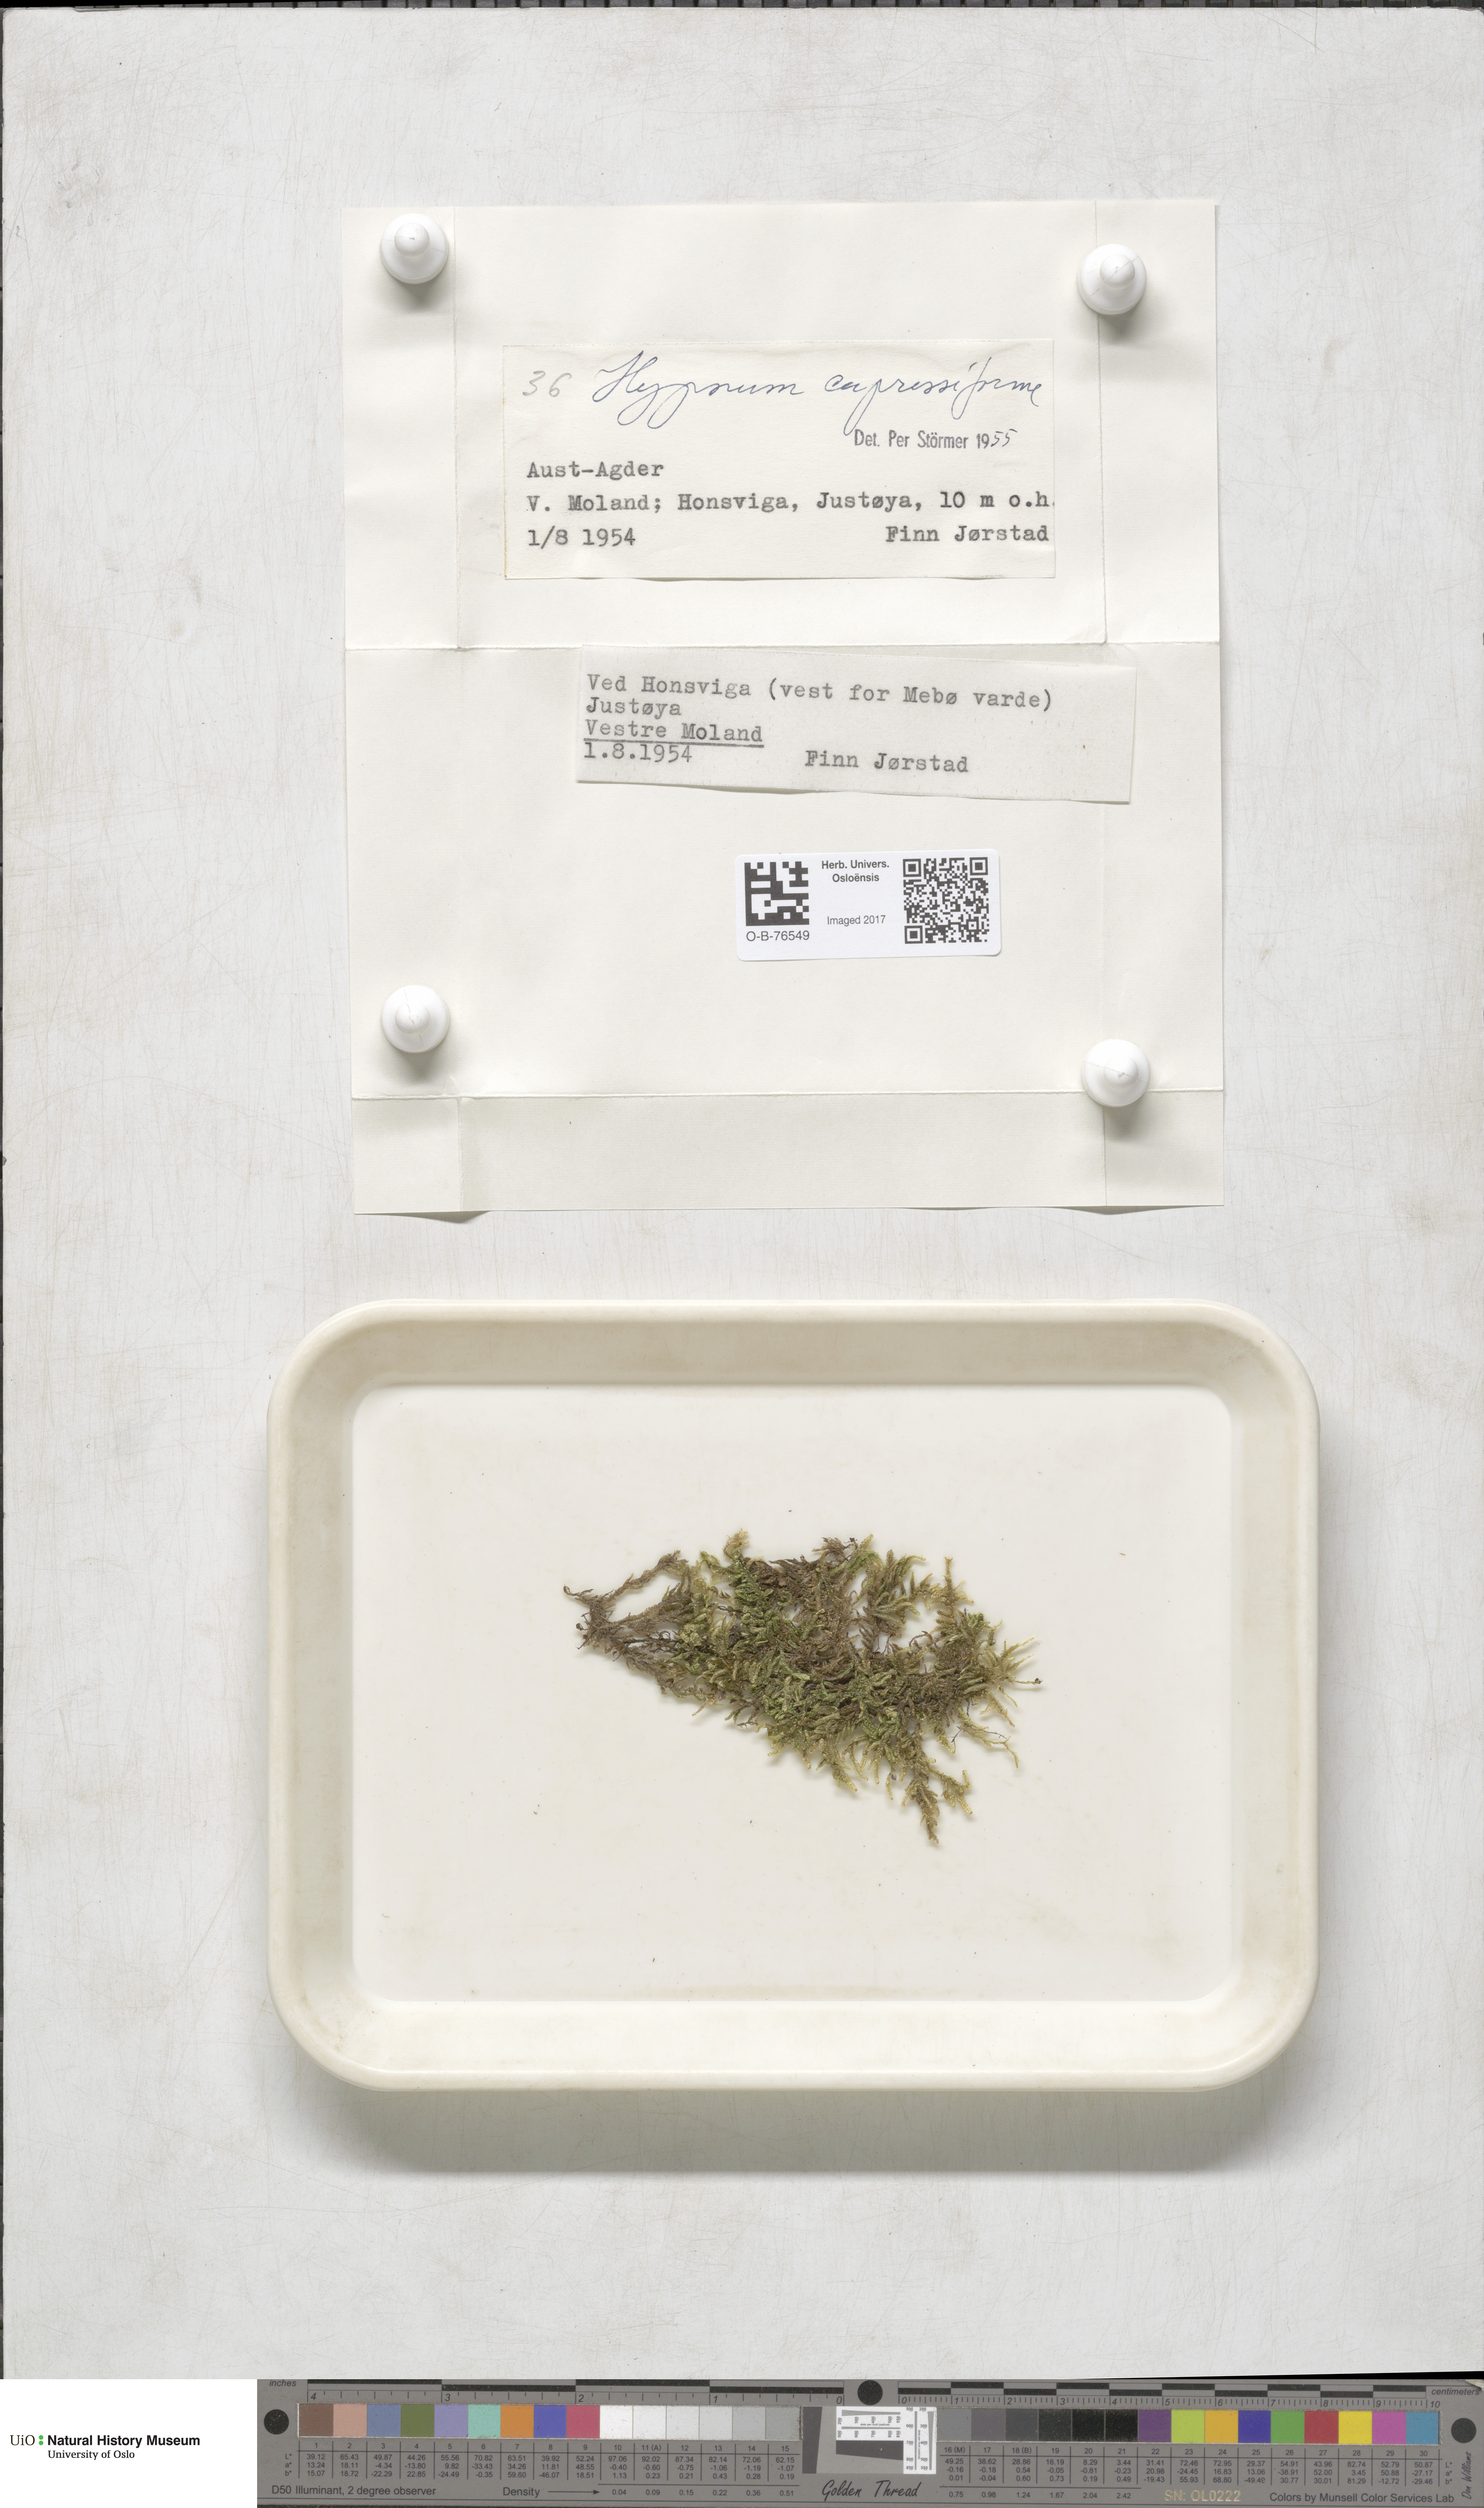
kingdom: Plantae
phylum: Bryophyta
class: Bryopsida
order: Hypnales
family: Hypnaceae
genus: Hypnum
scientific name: Hypnum cupressiforme
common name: Cypress-leaved plait-moss
